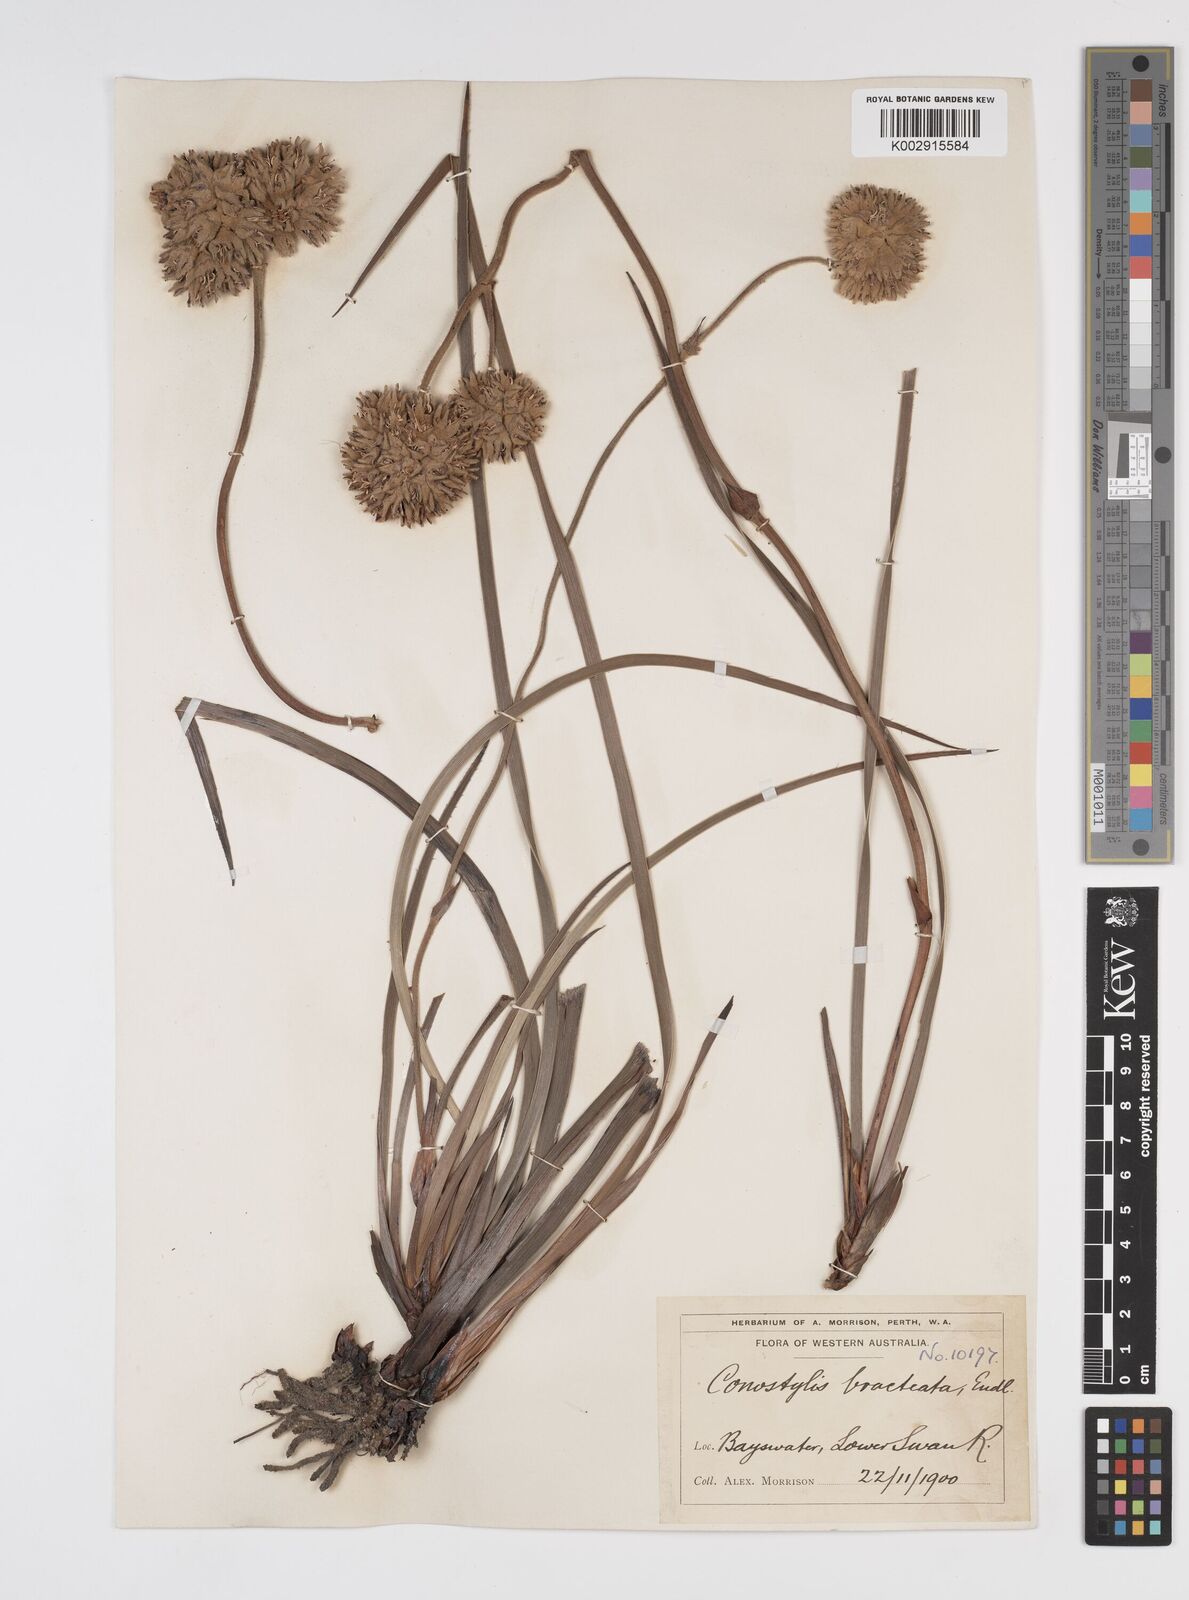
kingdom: Plantae
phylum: Tracheophyta
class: Liliopsida
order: Commelinales
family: Haemodoraceae
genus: Conostylis
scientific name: Conostylis bracteata
